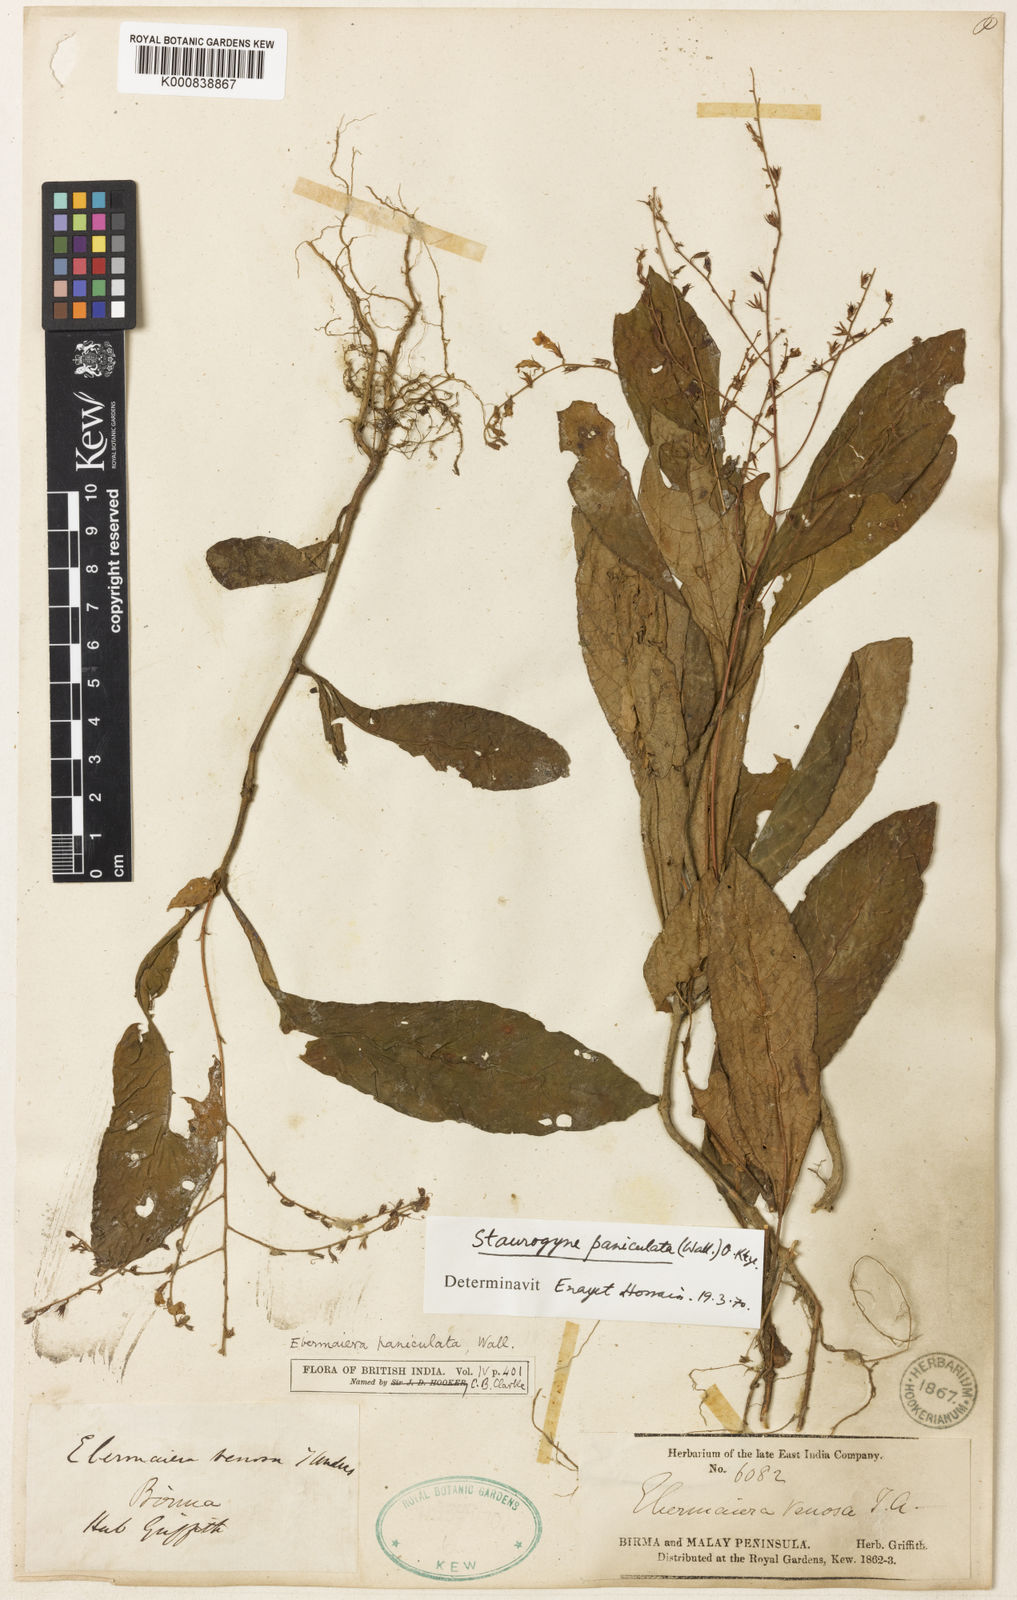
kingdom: Plantae
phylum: Tracheophyta
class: Magnoliopsida
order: Lamiales
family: Acanthaceae
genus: Staurogyne
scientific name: Staurogyne paniculata
